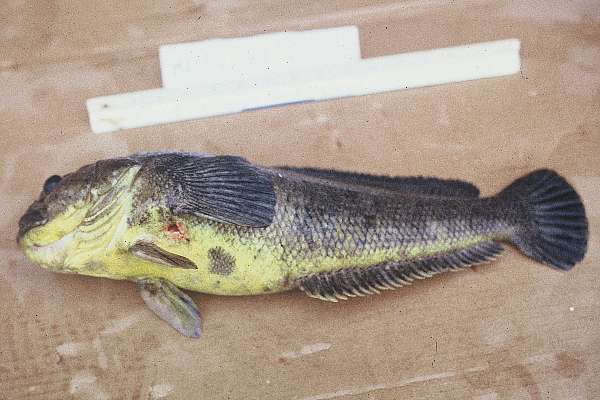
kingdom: Animalia
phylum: Chordata
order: Perciformes
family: Nototheniidae
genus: Notothenia
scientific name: Notothenia coriiceps
